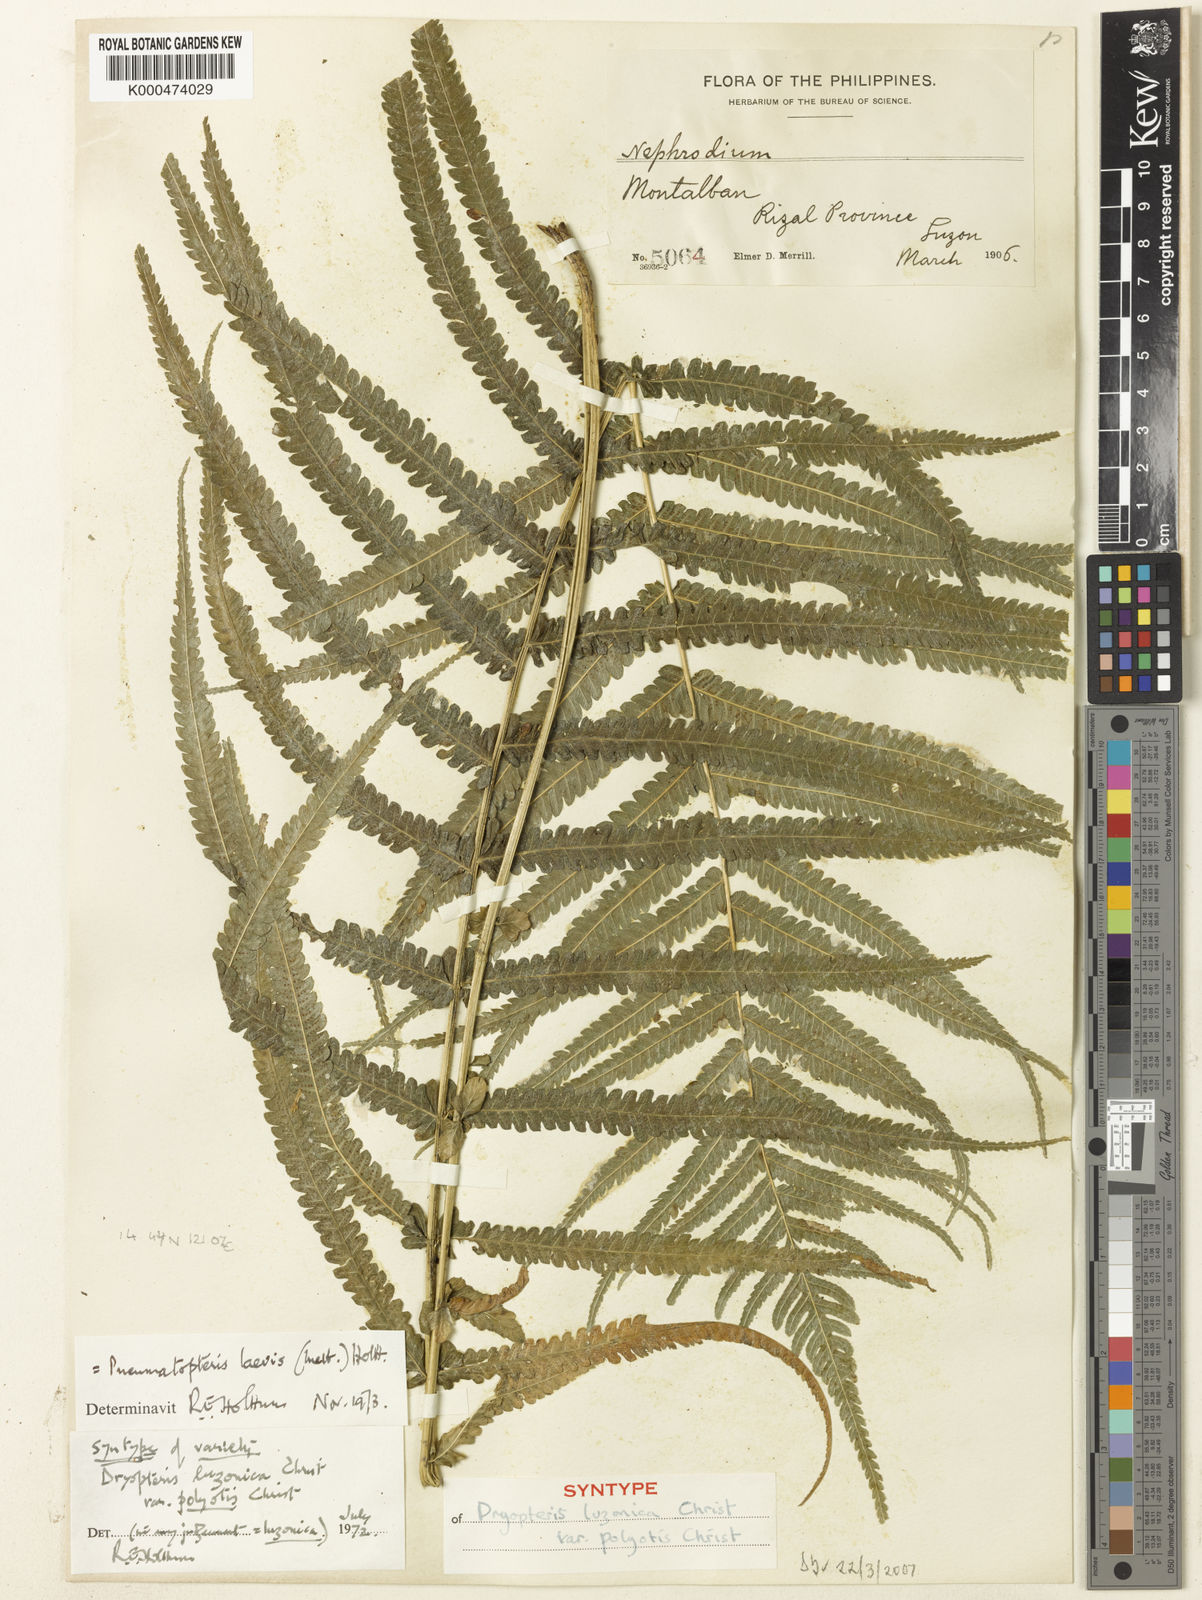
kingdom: Plantae
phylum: Tracheophyta
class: Polypodiopsida
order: Polypodiales
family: Thelypteridaceae
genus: Reholttumia
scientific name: Reholttumia laevis
